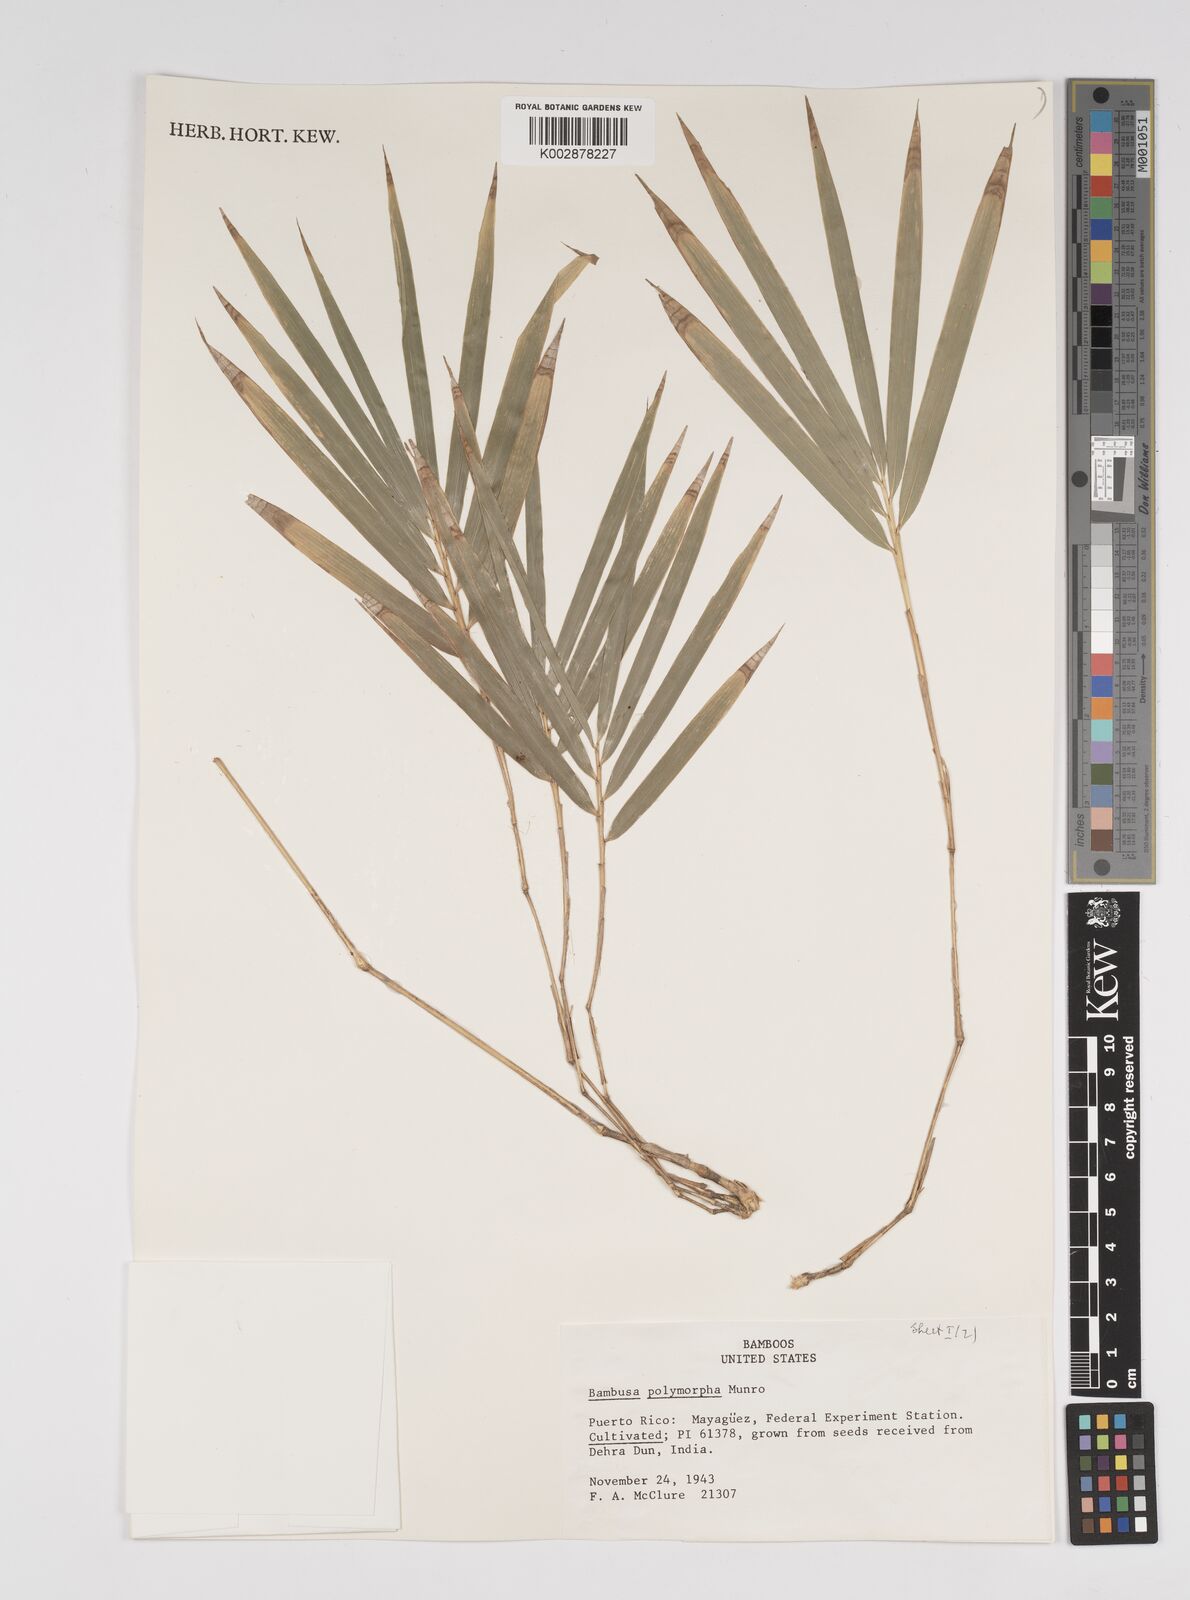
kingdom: Plantae
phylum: Tracheophyta
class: Liliopsida
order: Poales
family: Poaceae
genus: Bambusa
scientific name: Bambusa polymorpha
